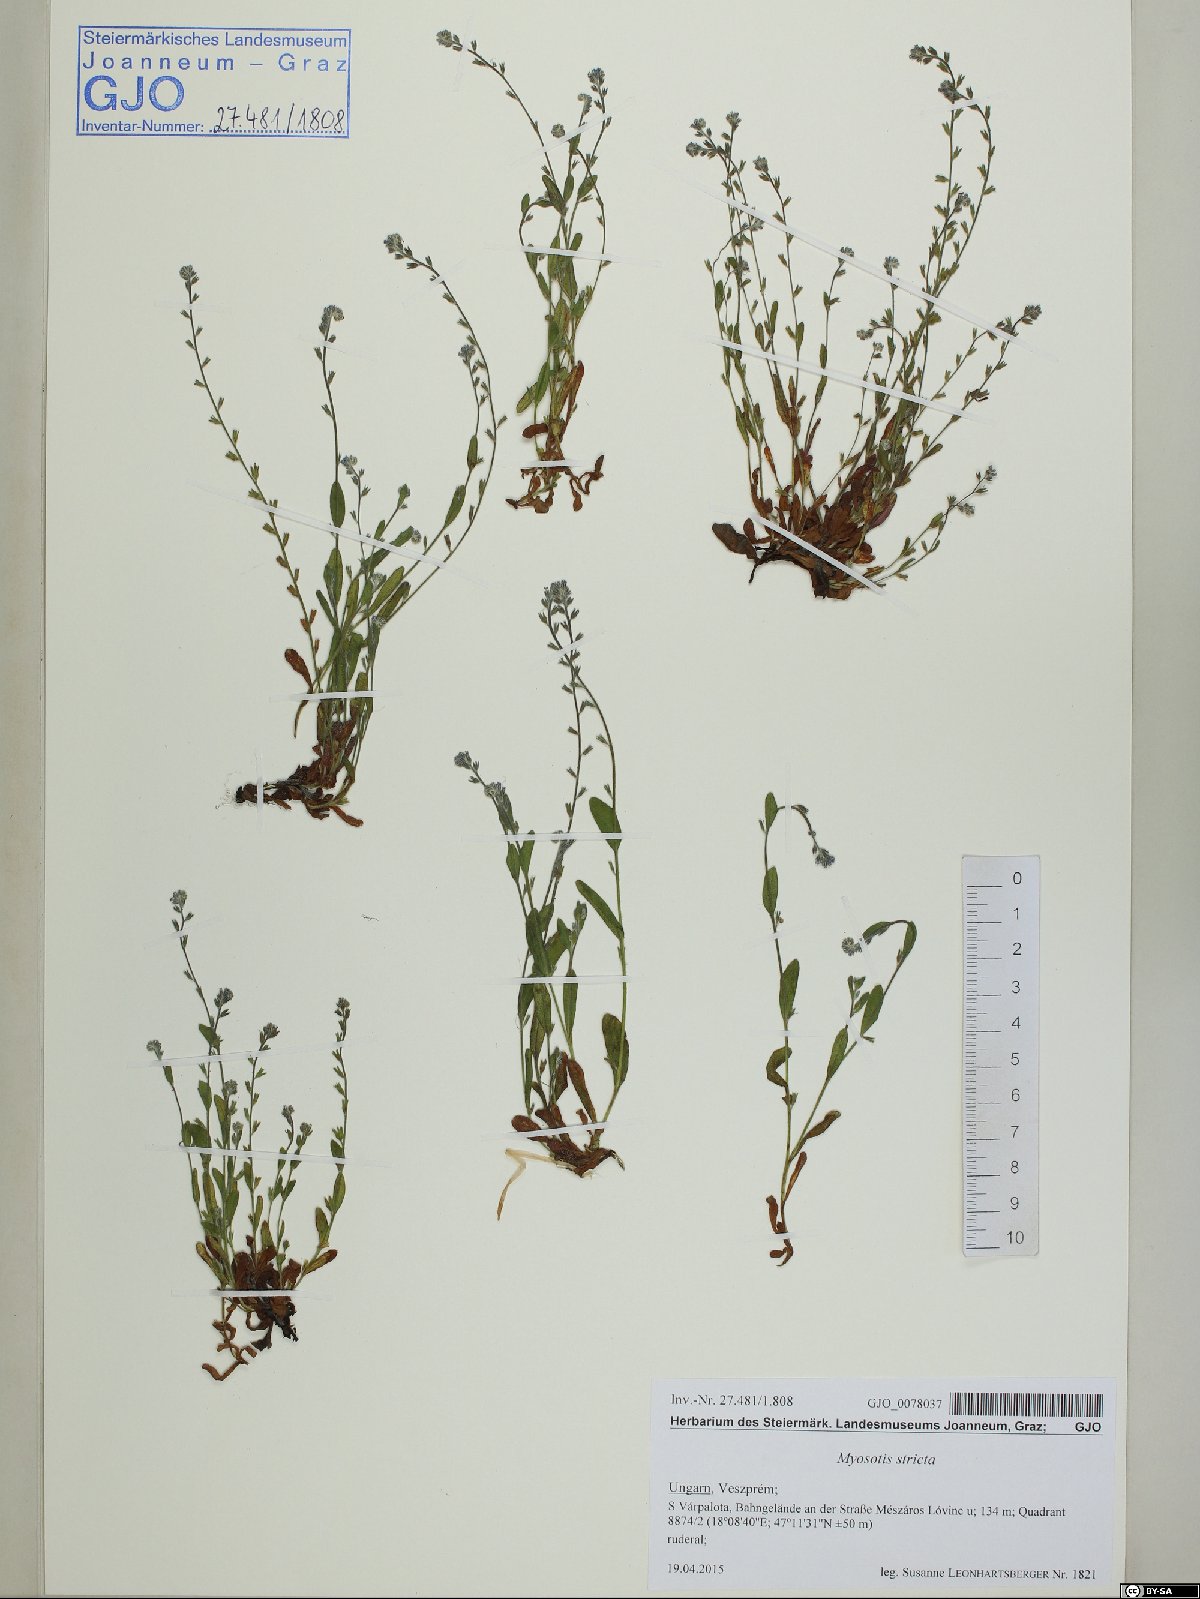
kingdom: Plantae
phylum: Tracheophyta
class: Magnoliopsida
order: Boraginales
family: Boraginaceae
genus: Myosotis
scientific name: Myosotis stricta
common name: Strict forget-me-not
